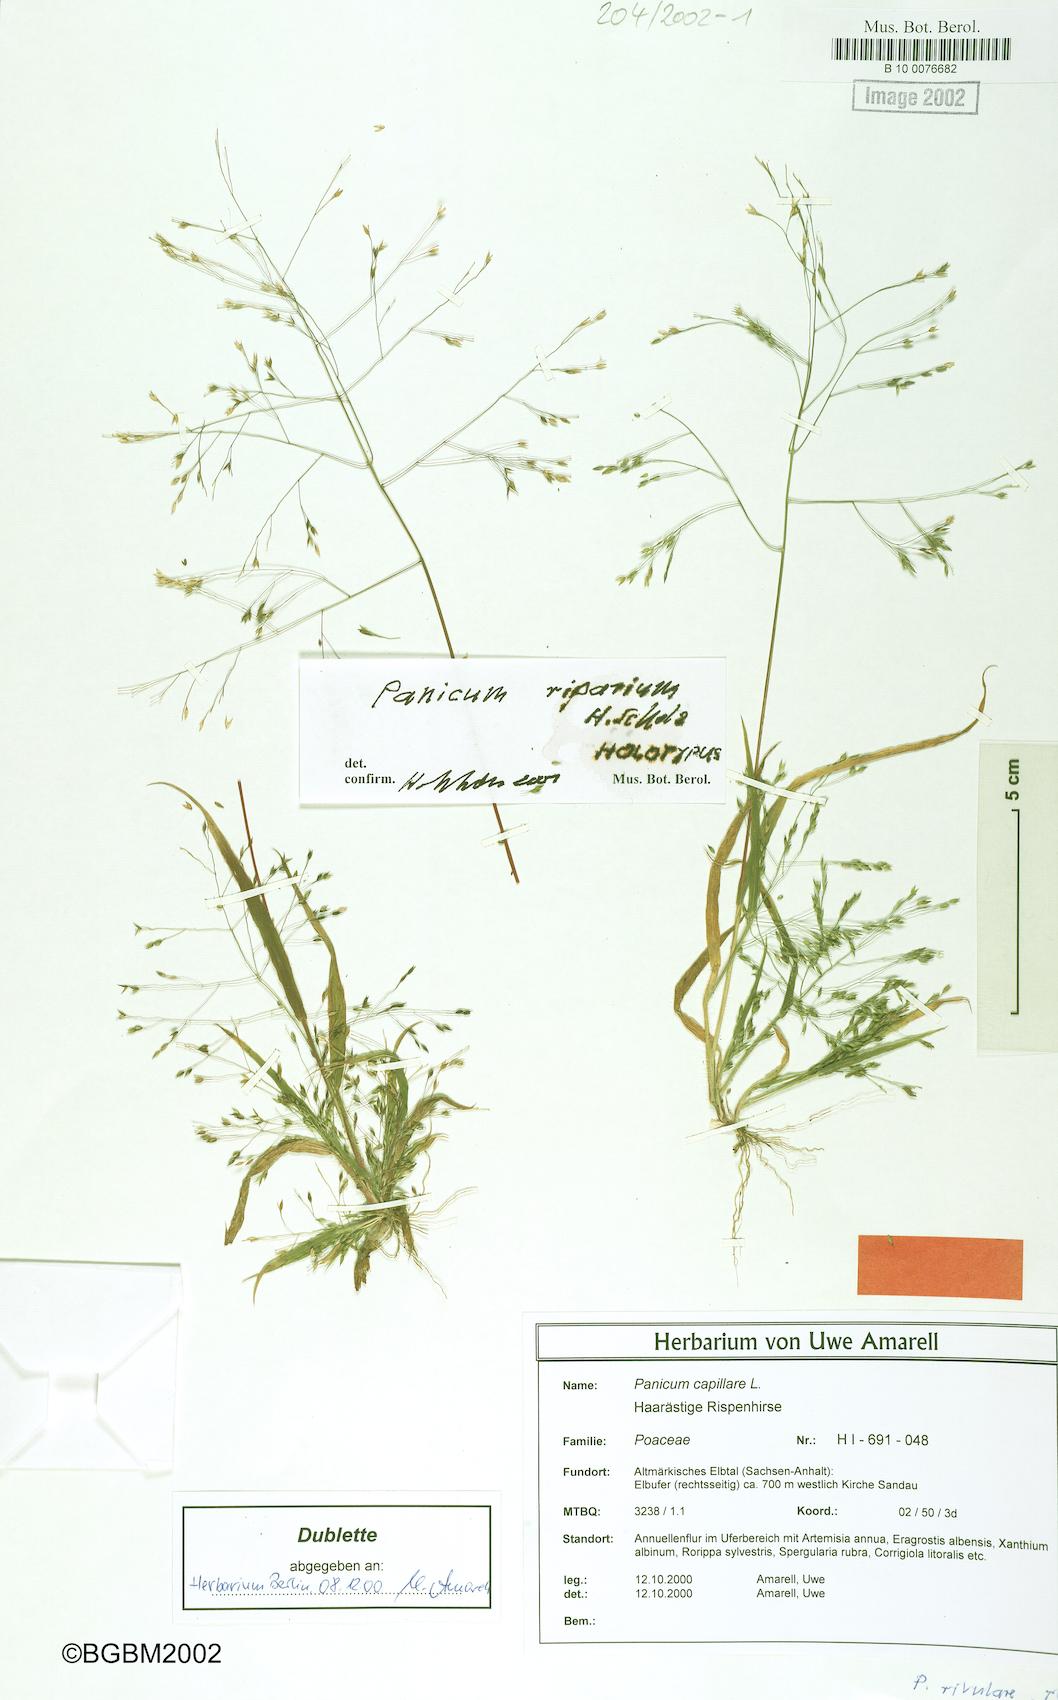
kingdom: Plantae
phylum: Tracheophyta
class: Liliopsida
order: Poales
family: Poaceae
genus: Panicum
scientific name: Panicum capillare
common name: Witch-grass
